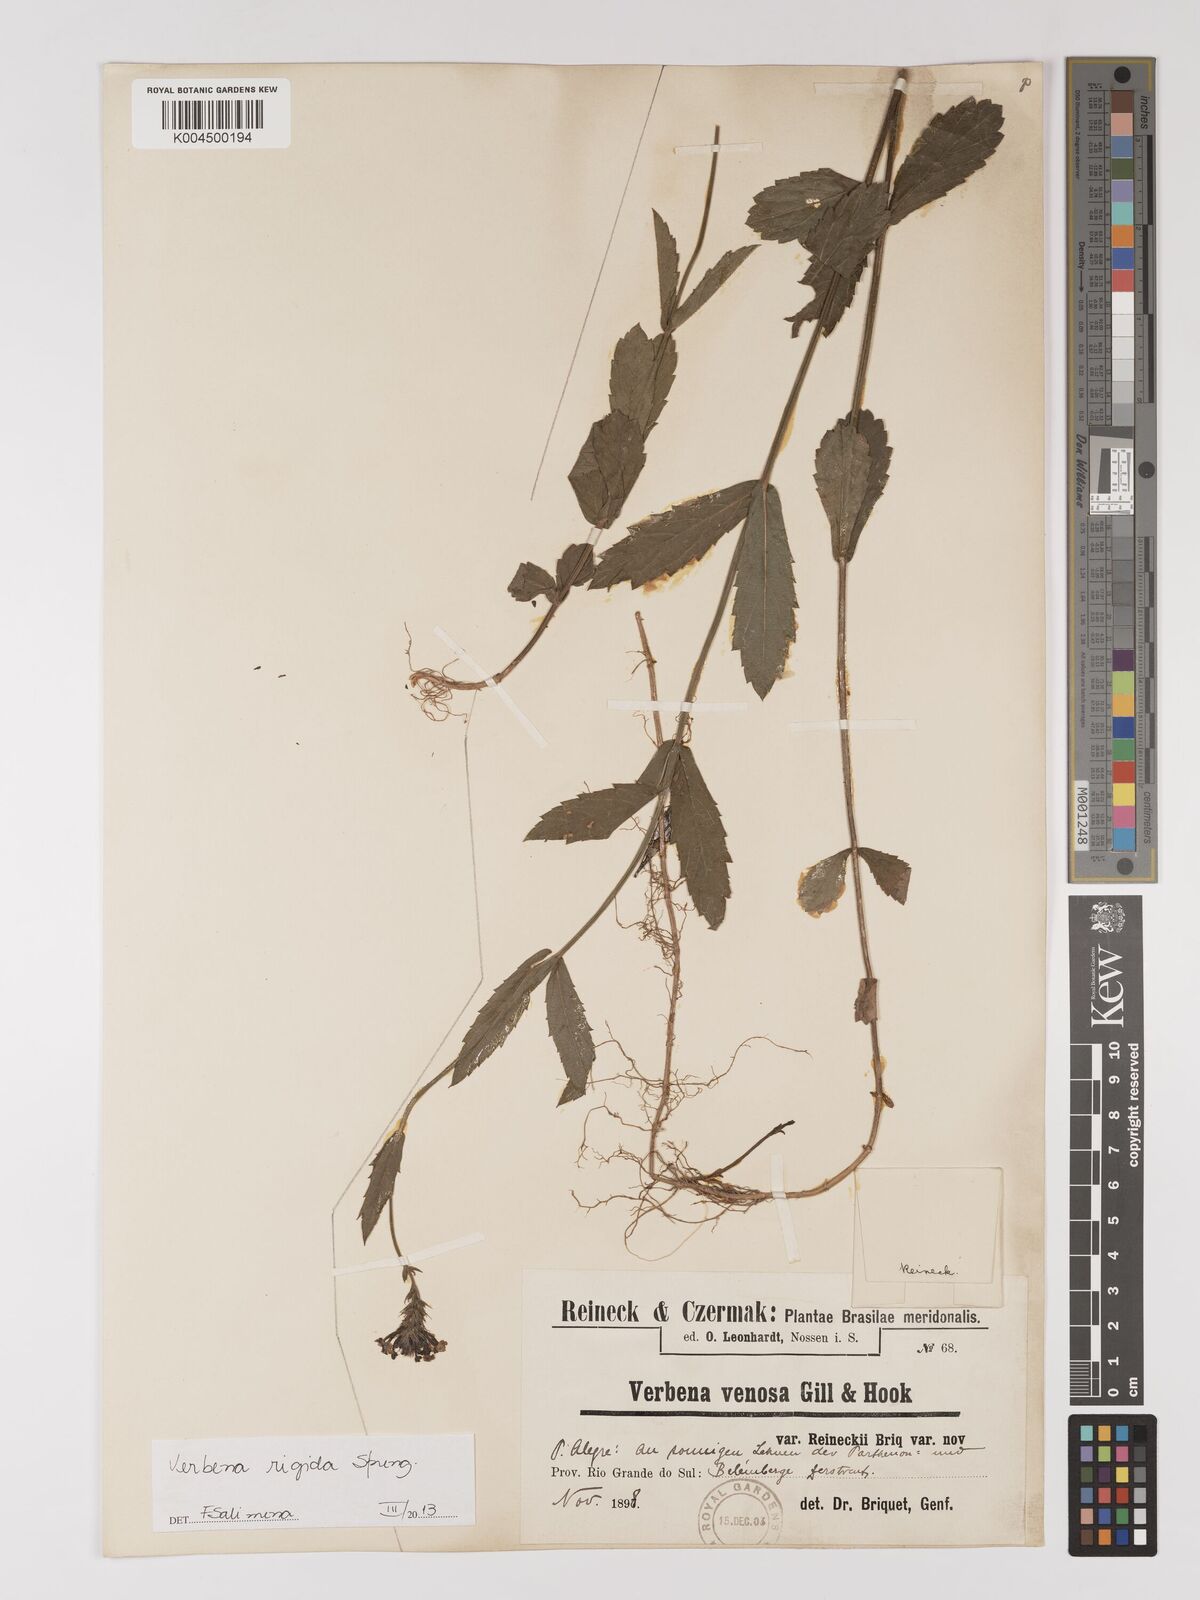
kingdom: Plantae
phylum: Tracheophyta
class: Magnoliopsida
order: Lamiales
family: Verbenaceae
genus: Verbena
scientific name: Verbena rigida
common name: Slender vervain
